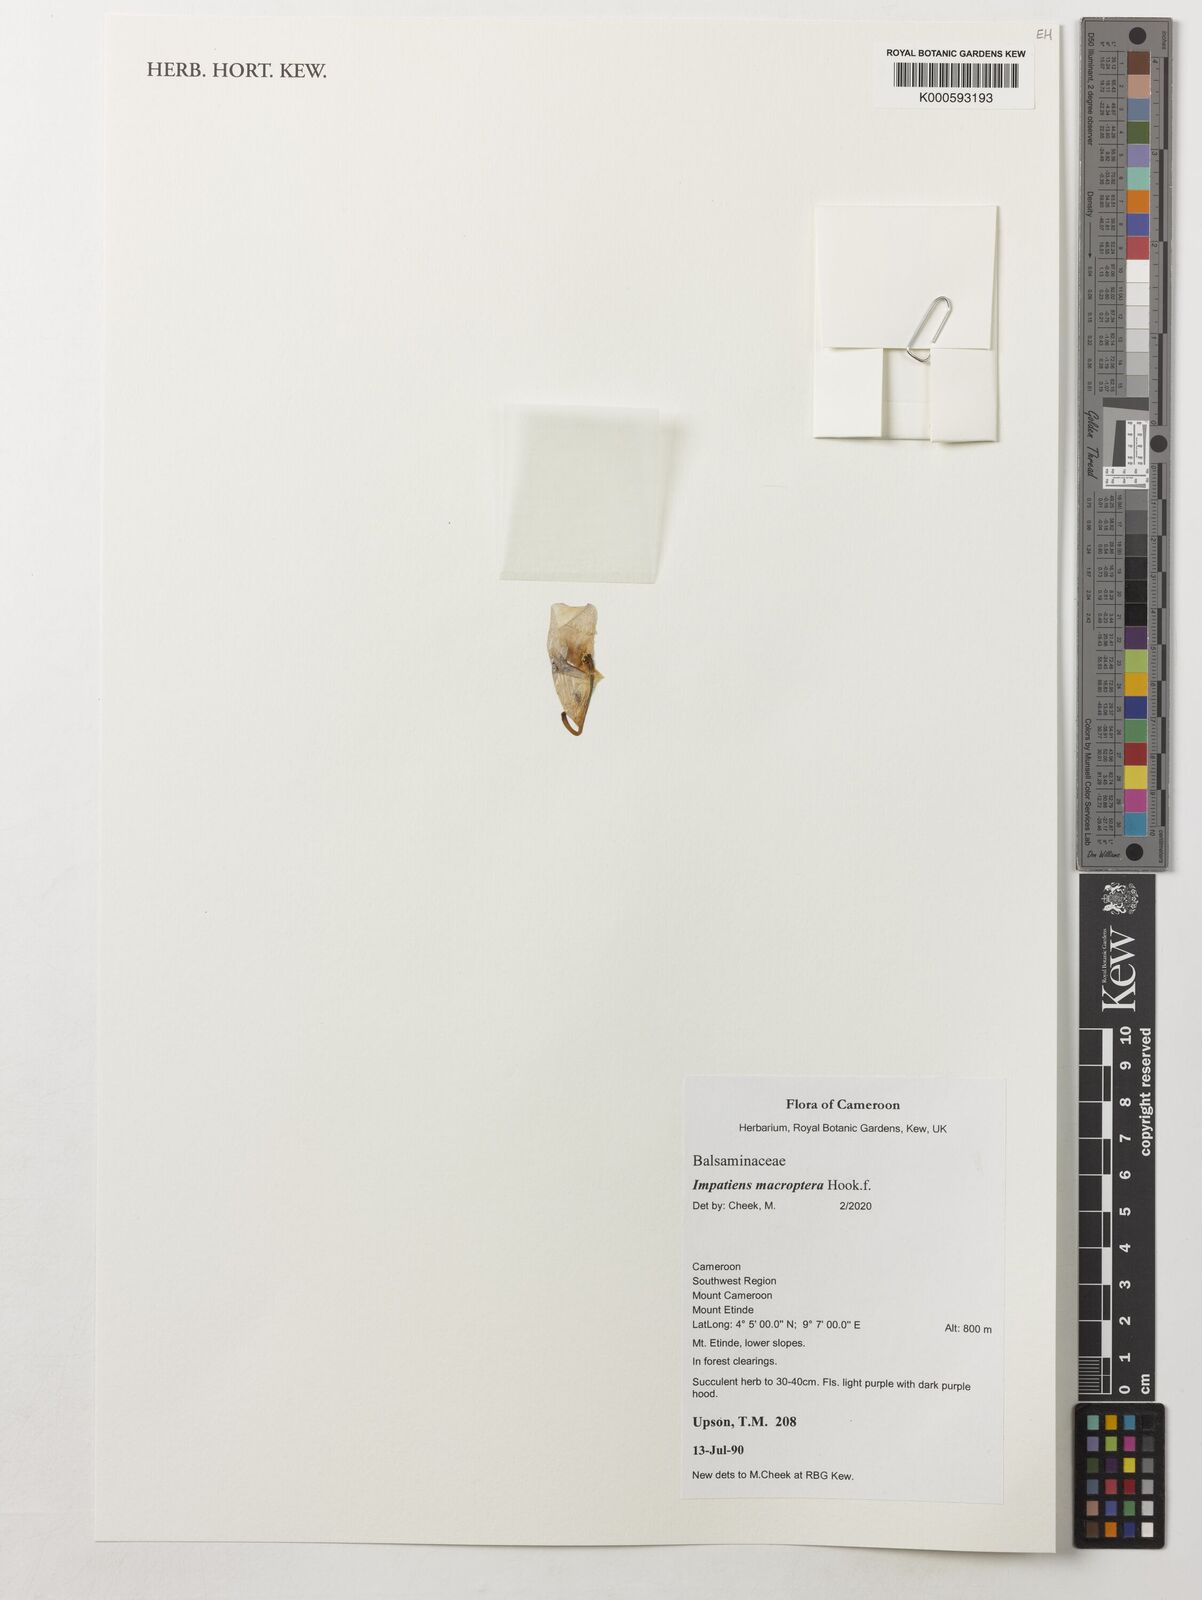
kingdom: Plantae
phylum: Tracheophyta
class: Magnoliopsida
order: Ericales
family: Balsaminaceae
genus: Impatiens
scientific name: Impatiens macroptera
